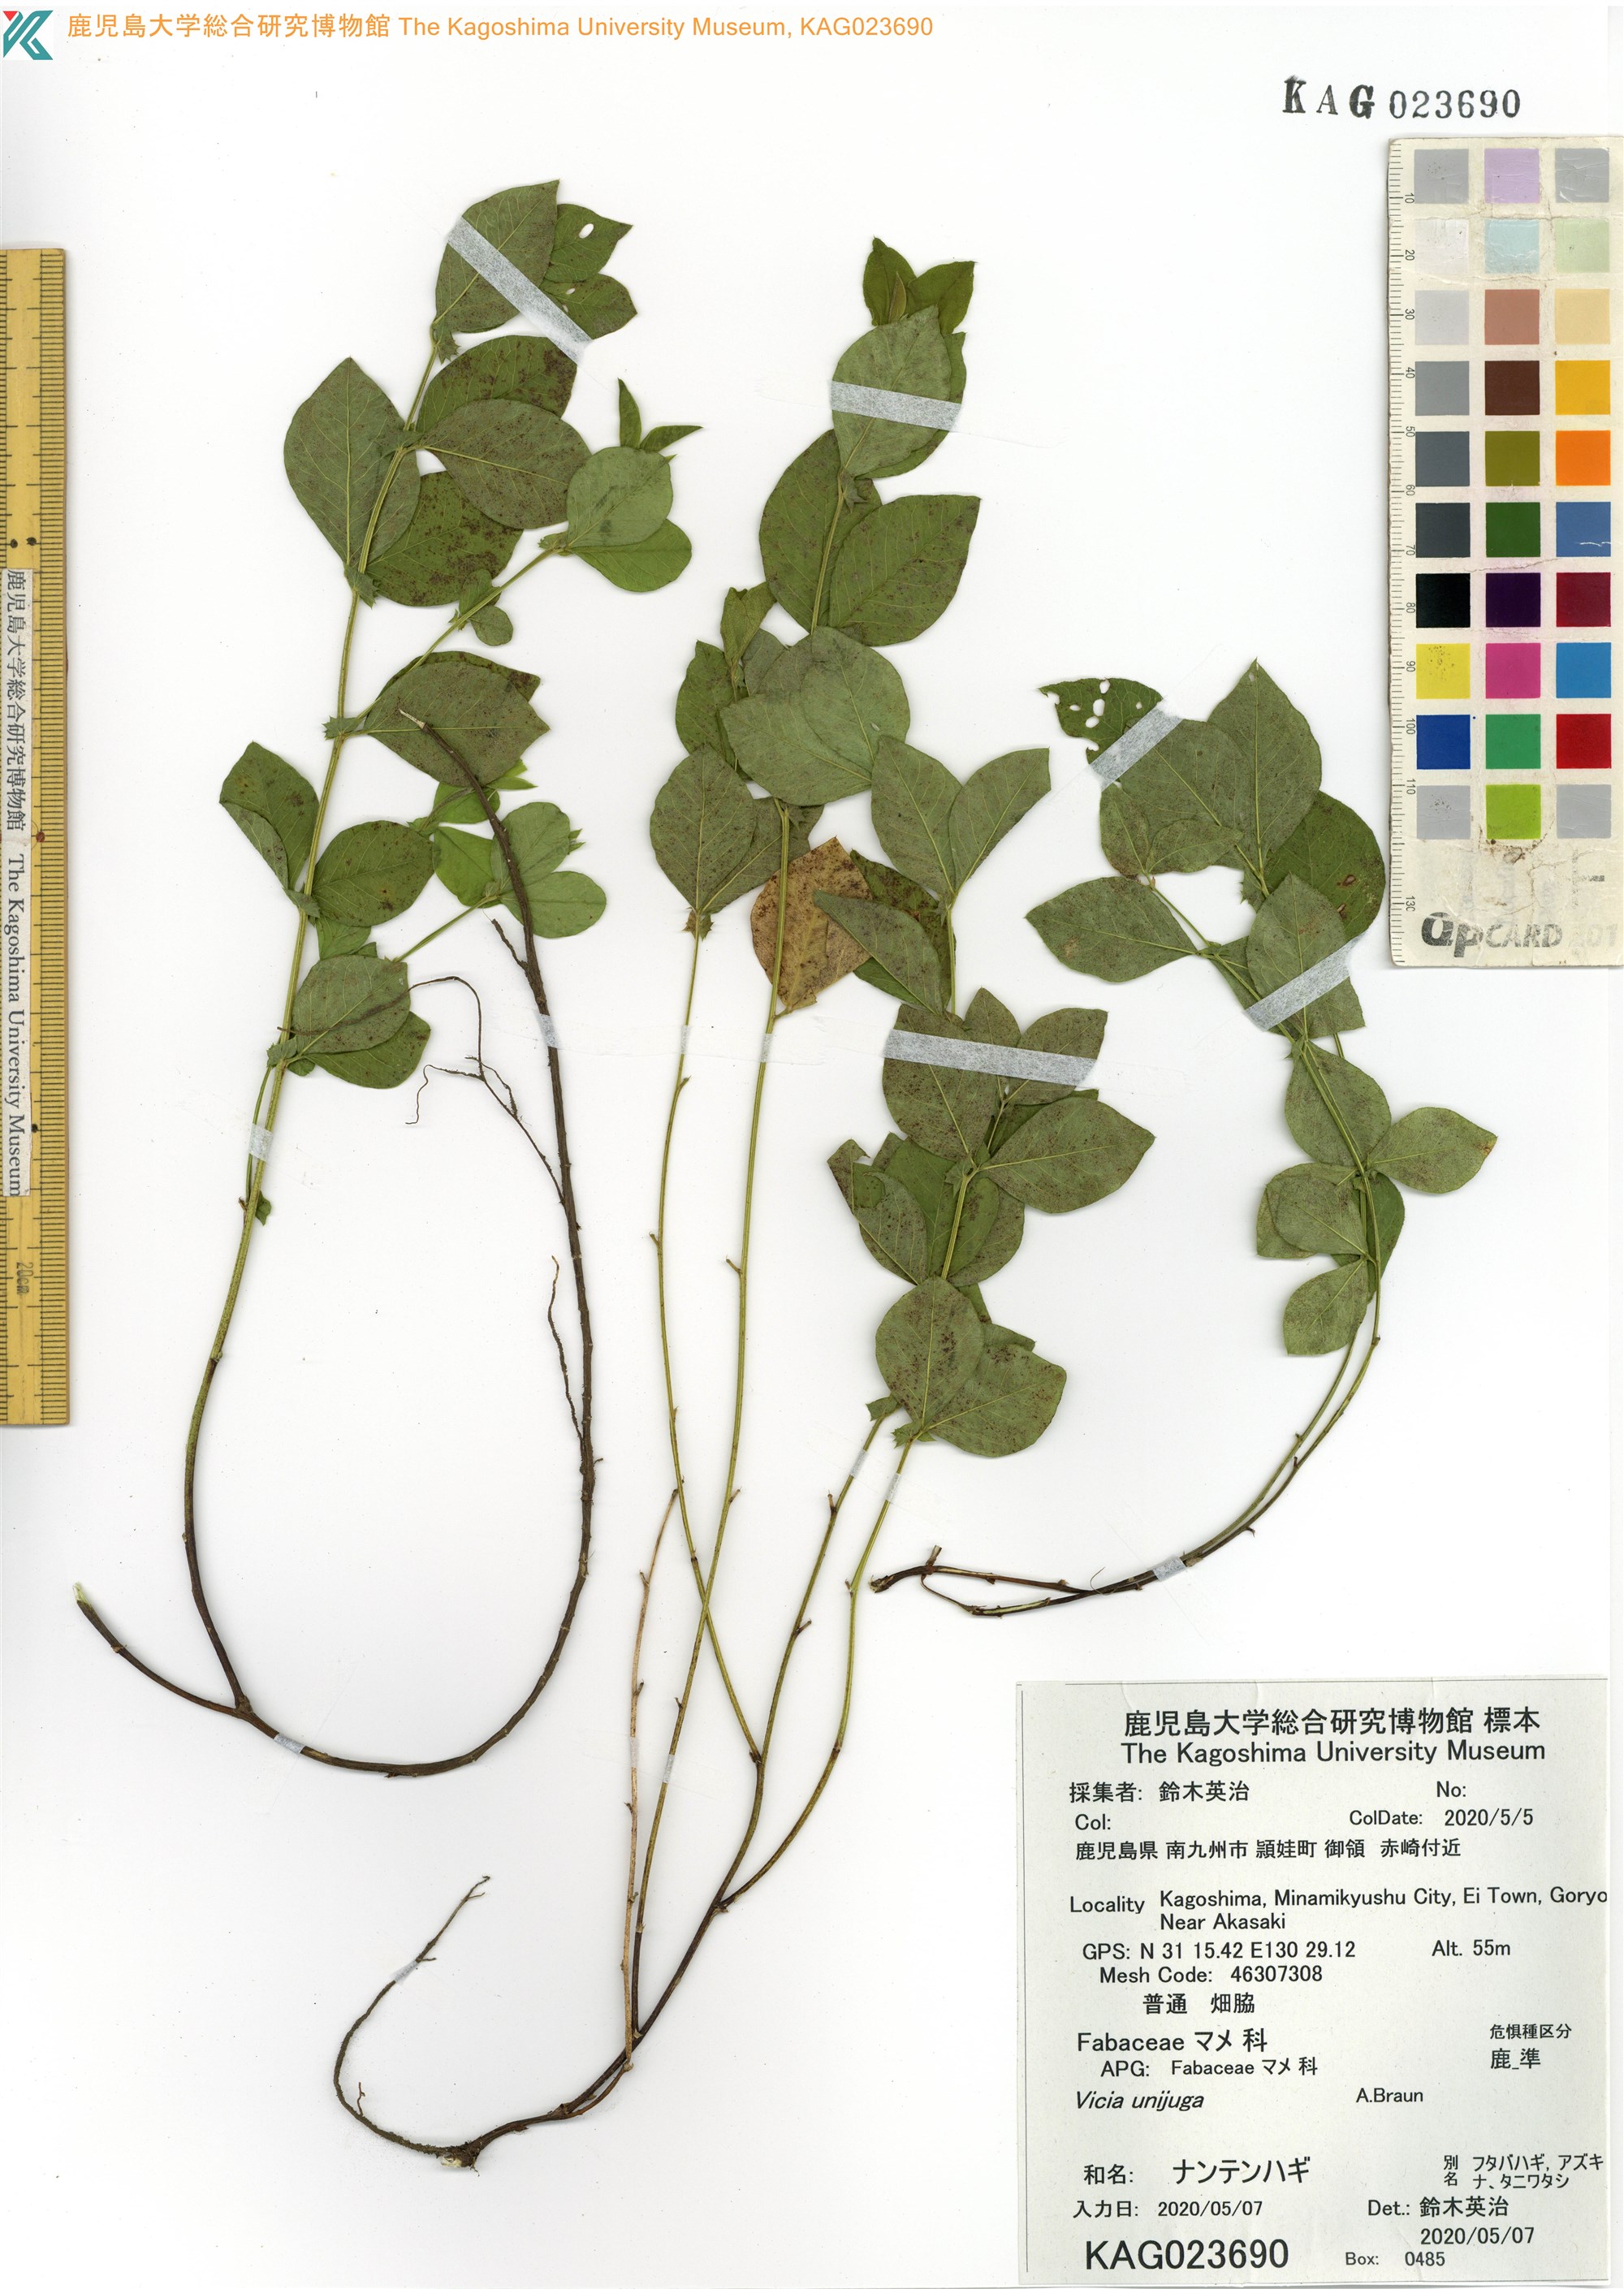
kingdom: Plantae
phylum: Tracheophyta
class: Magnoliopsida
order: Fabales
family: Fabaceae
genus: Vicia
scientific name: Vicia unijuga
